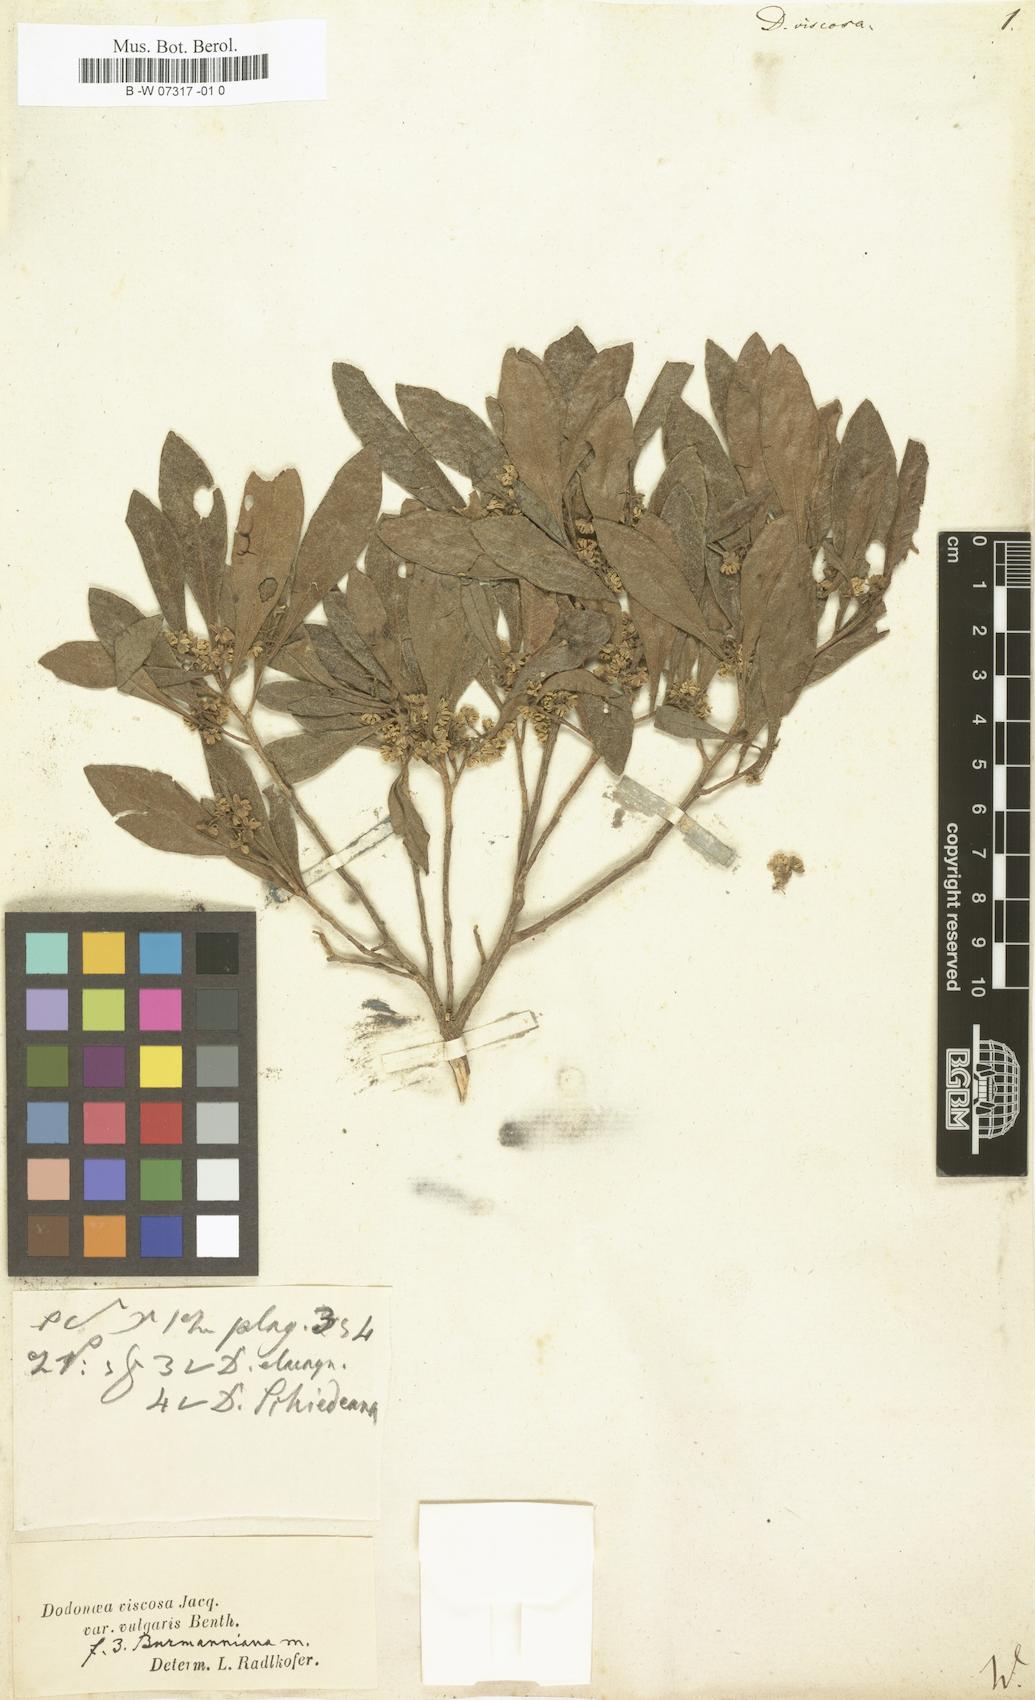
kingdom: Plantae
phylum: Tracheophyta
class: Magnoliopsida
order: Sapindales
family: Sapindaceae
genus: Dodonaea
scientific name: Dodonaea viscosa
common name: Hopbush
